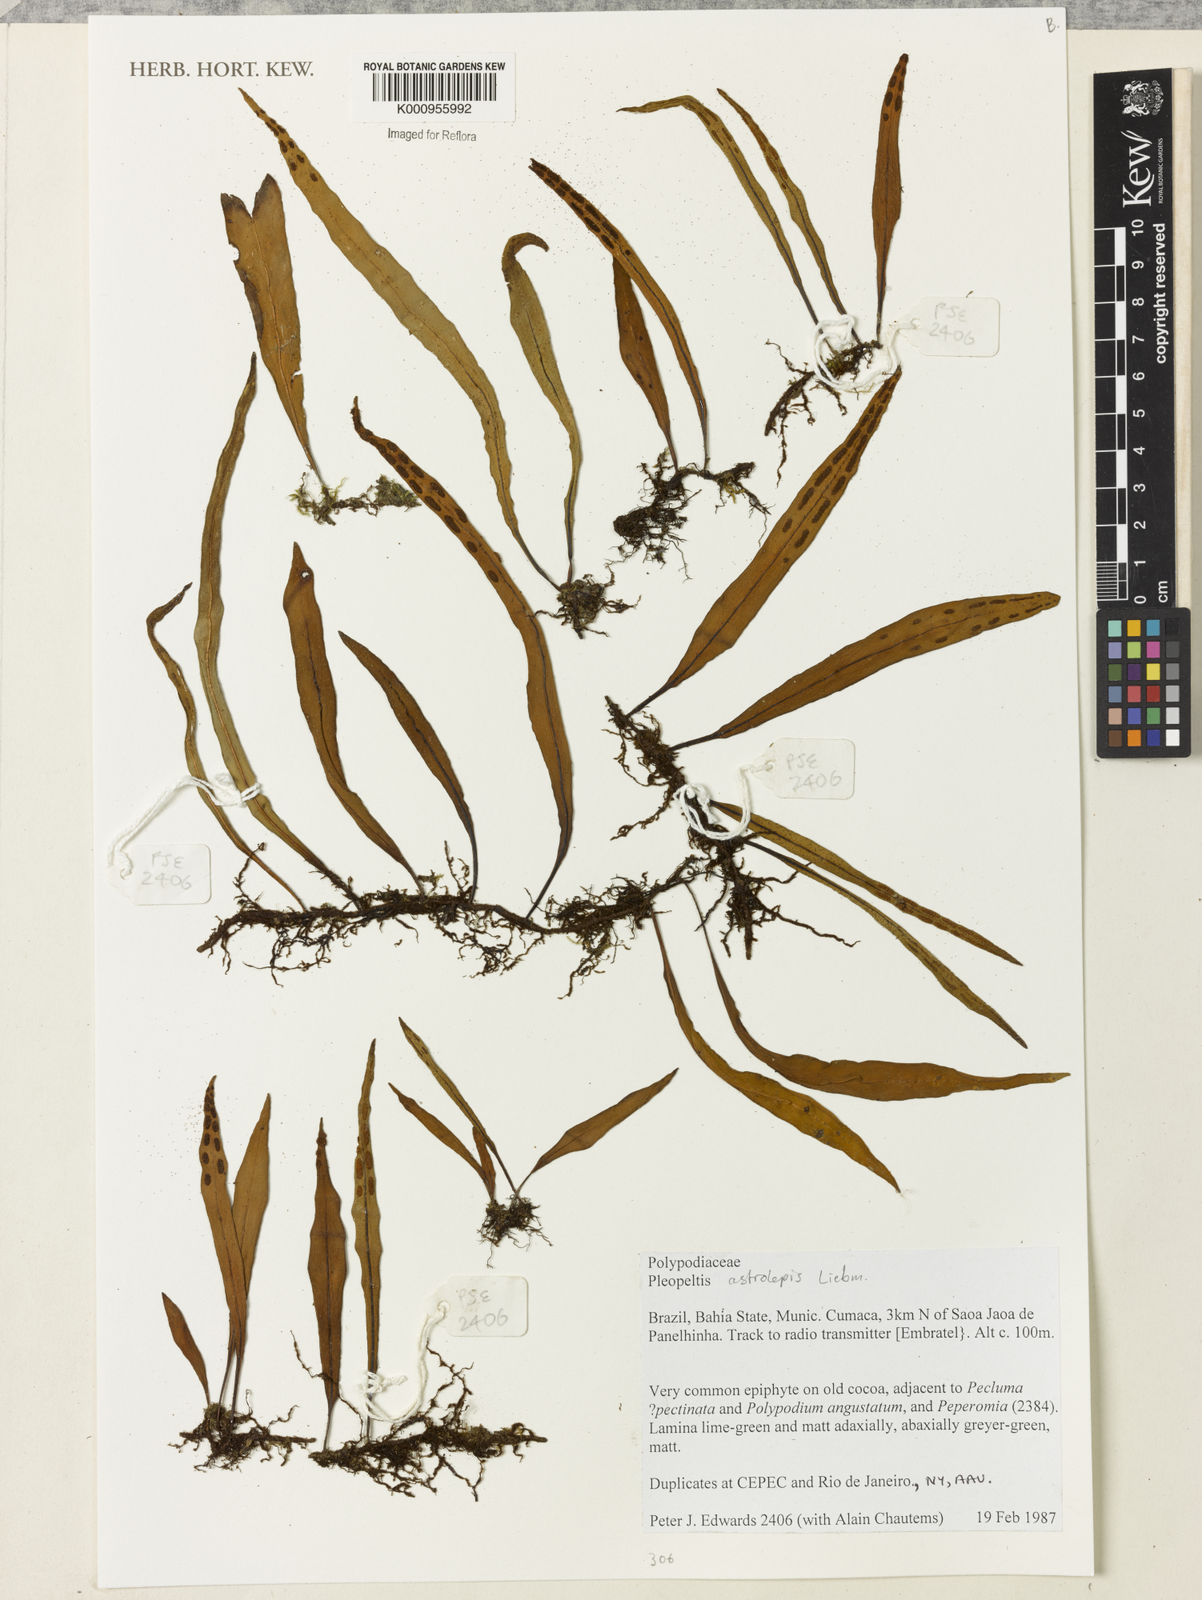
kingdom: Plantae
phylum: Tracheophyta
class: Polypodiopsida
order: Polypodiales
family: Polypodiaceae
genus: Pleopeltis
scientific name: Pleopeltis astrolepis
